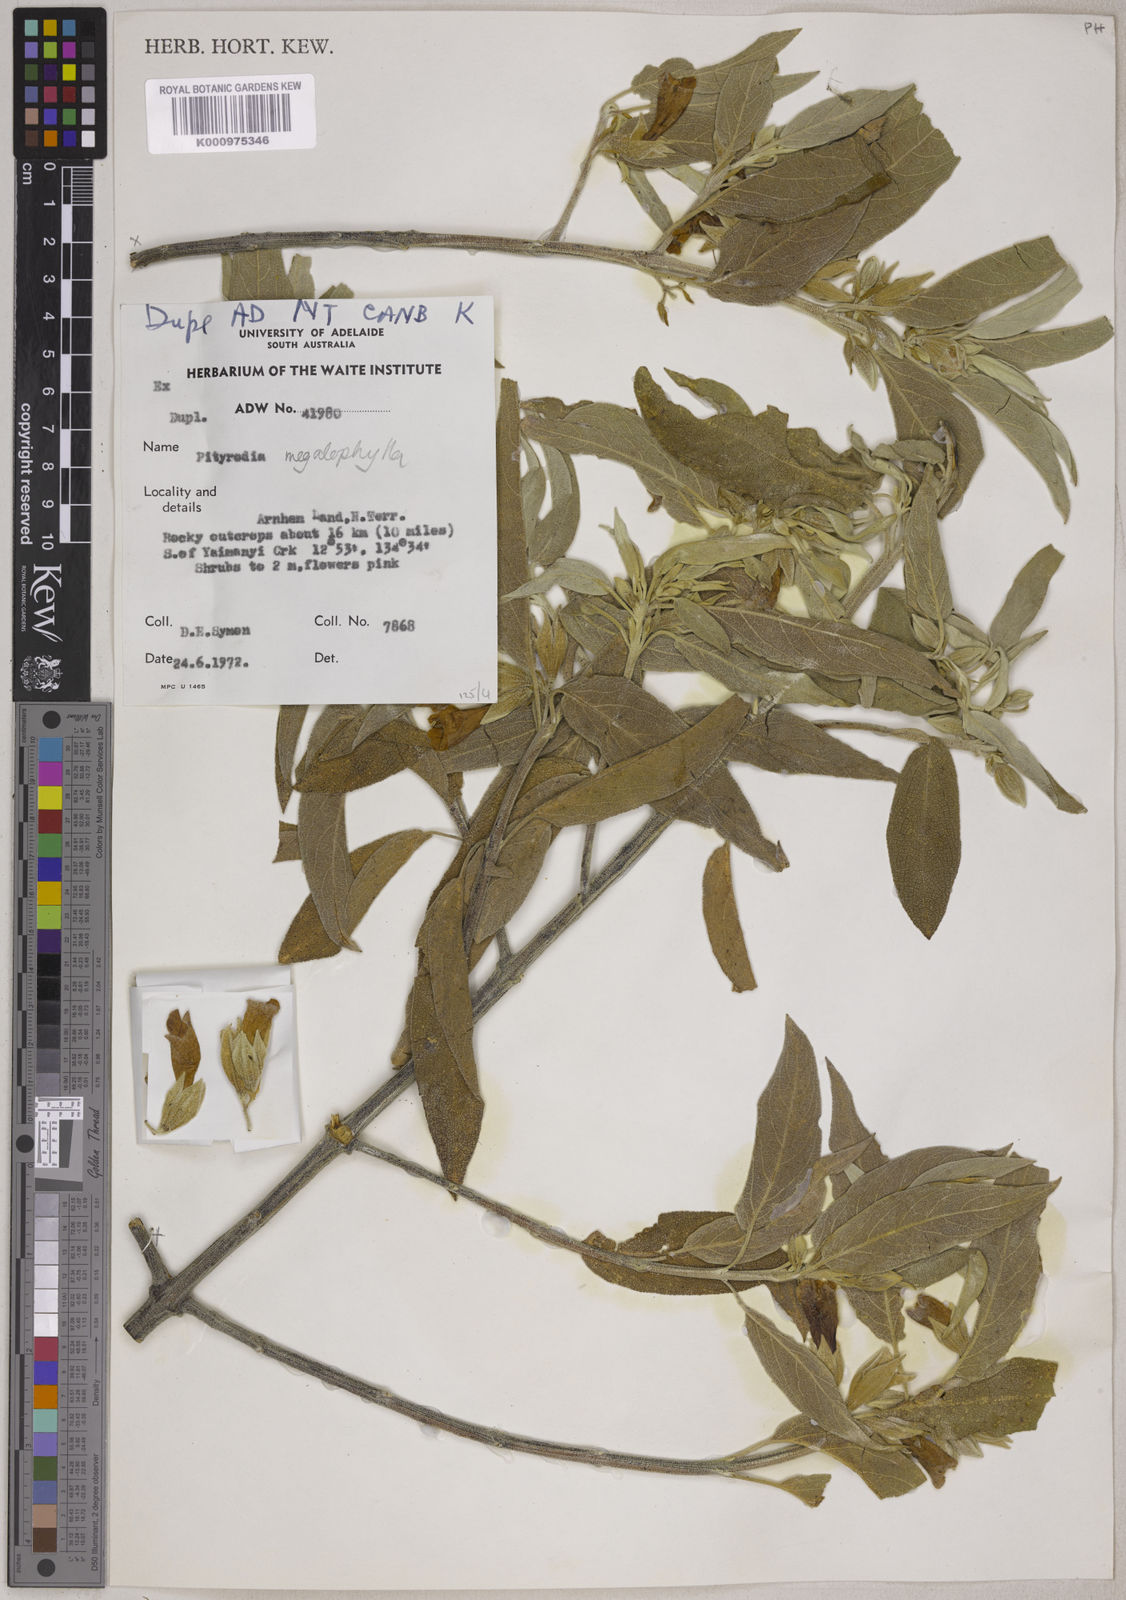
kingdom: Plantae
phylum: Tracheophyta
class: Magnoliopsida
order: Lamiales
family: Lamiaceae
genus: Muniria
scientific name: Muniria megalophylla
